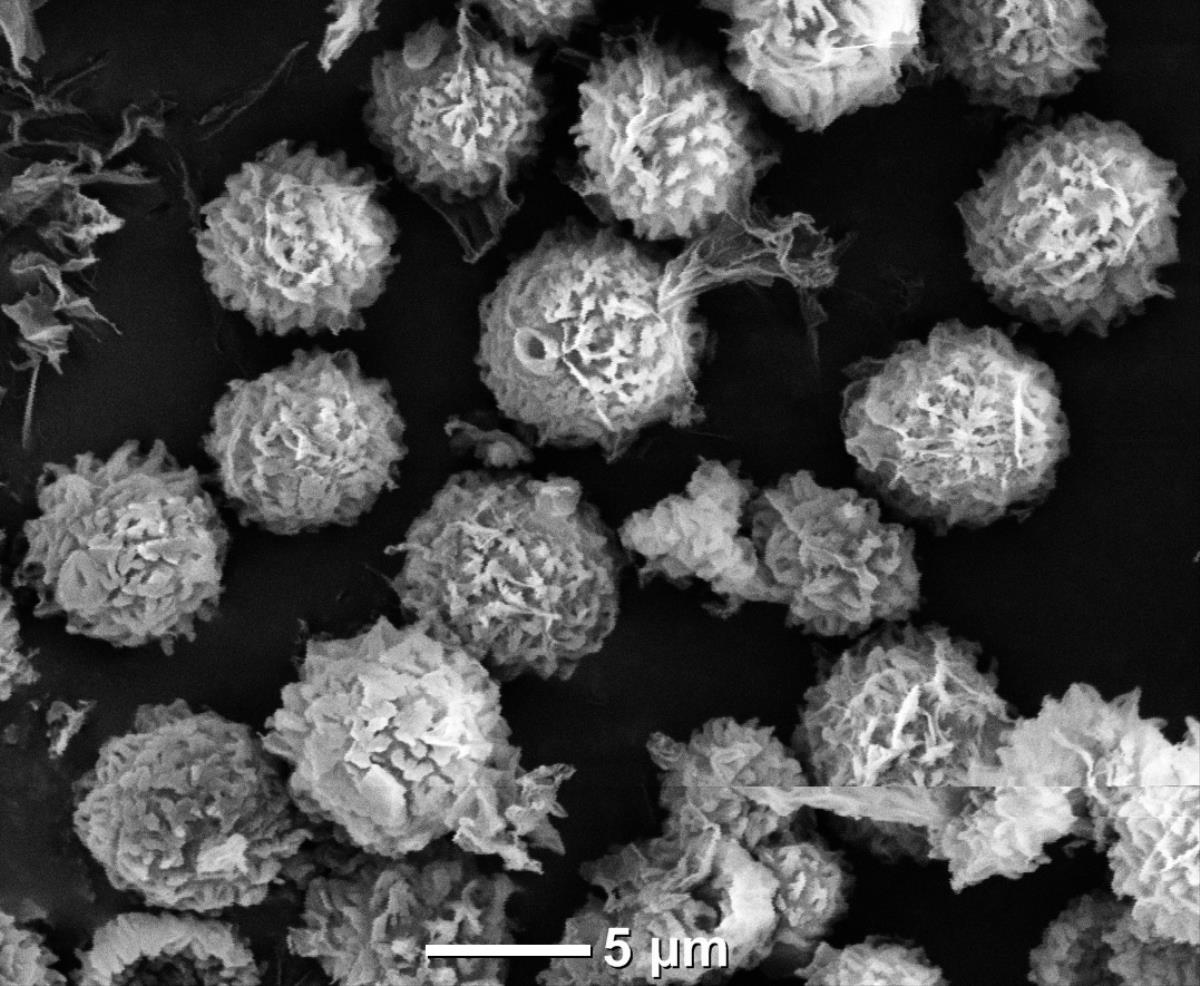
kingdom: Fungi
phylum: Basidiomycota
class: Agaricomycetes
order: Boletales
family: Sclerodermataceae
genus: Pisolithus
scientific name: Pisolithus
